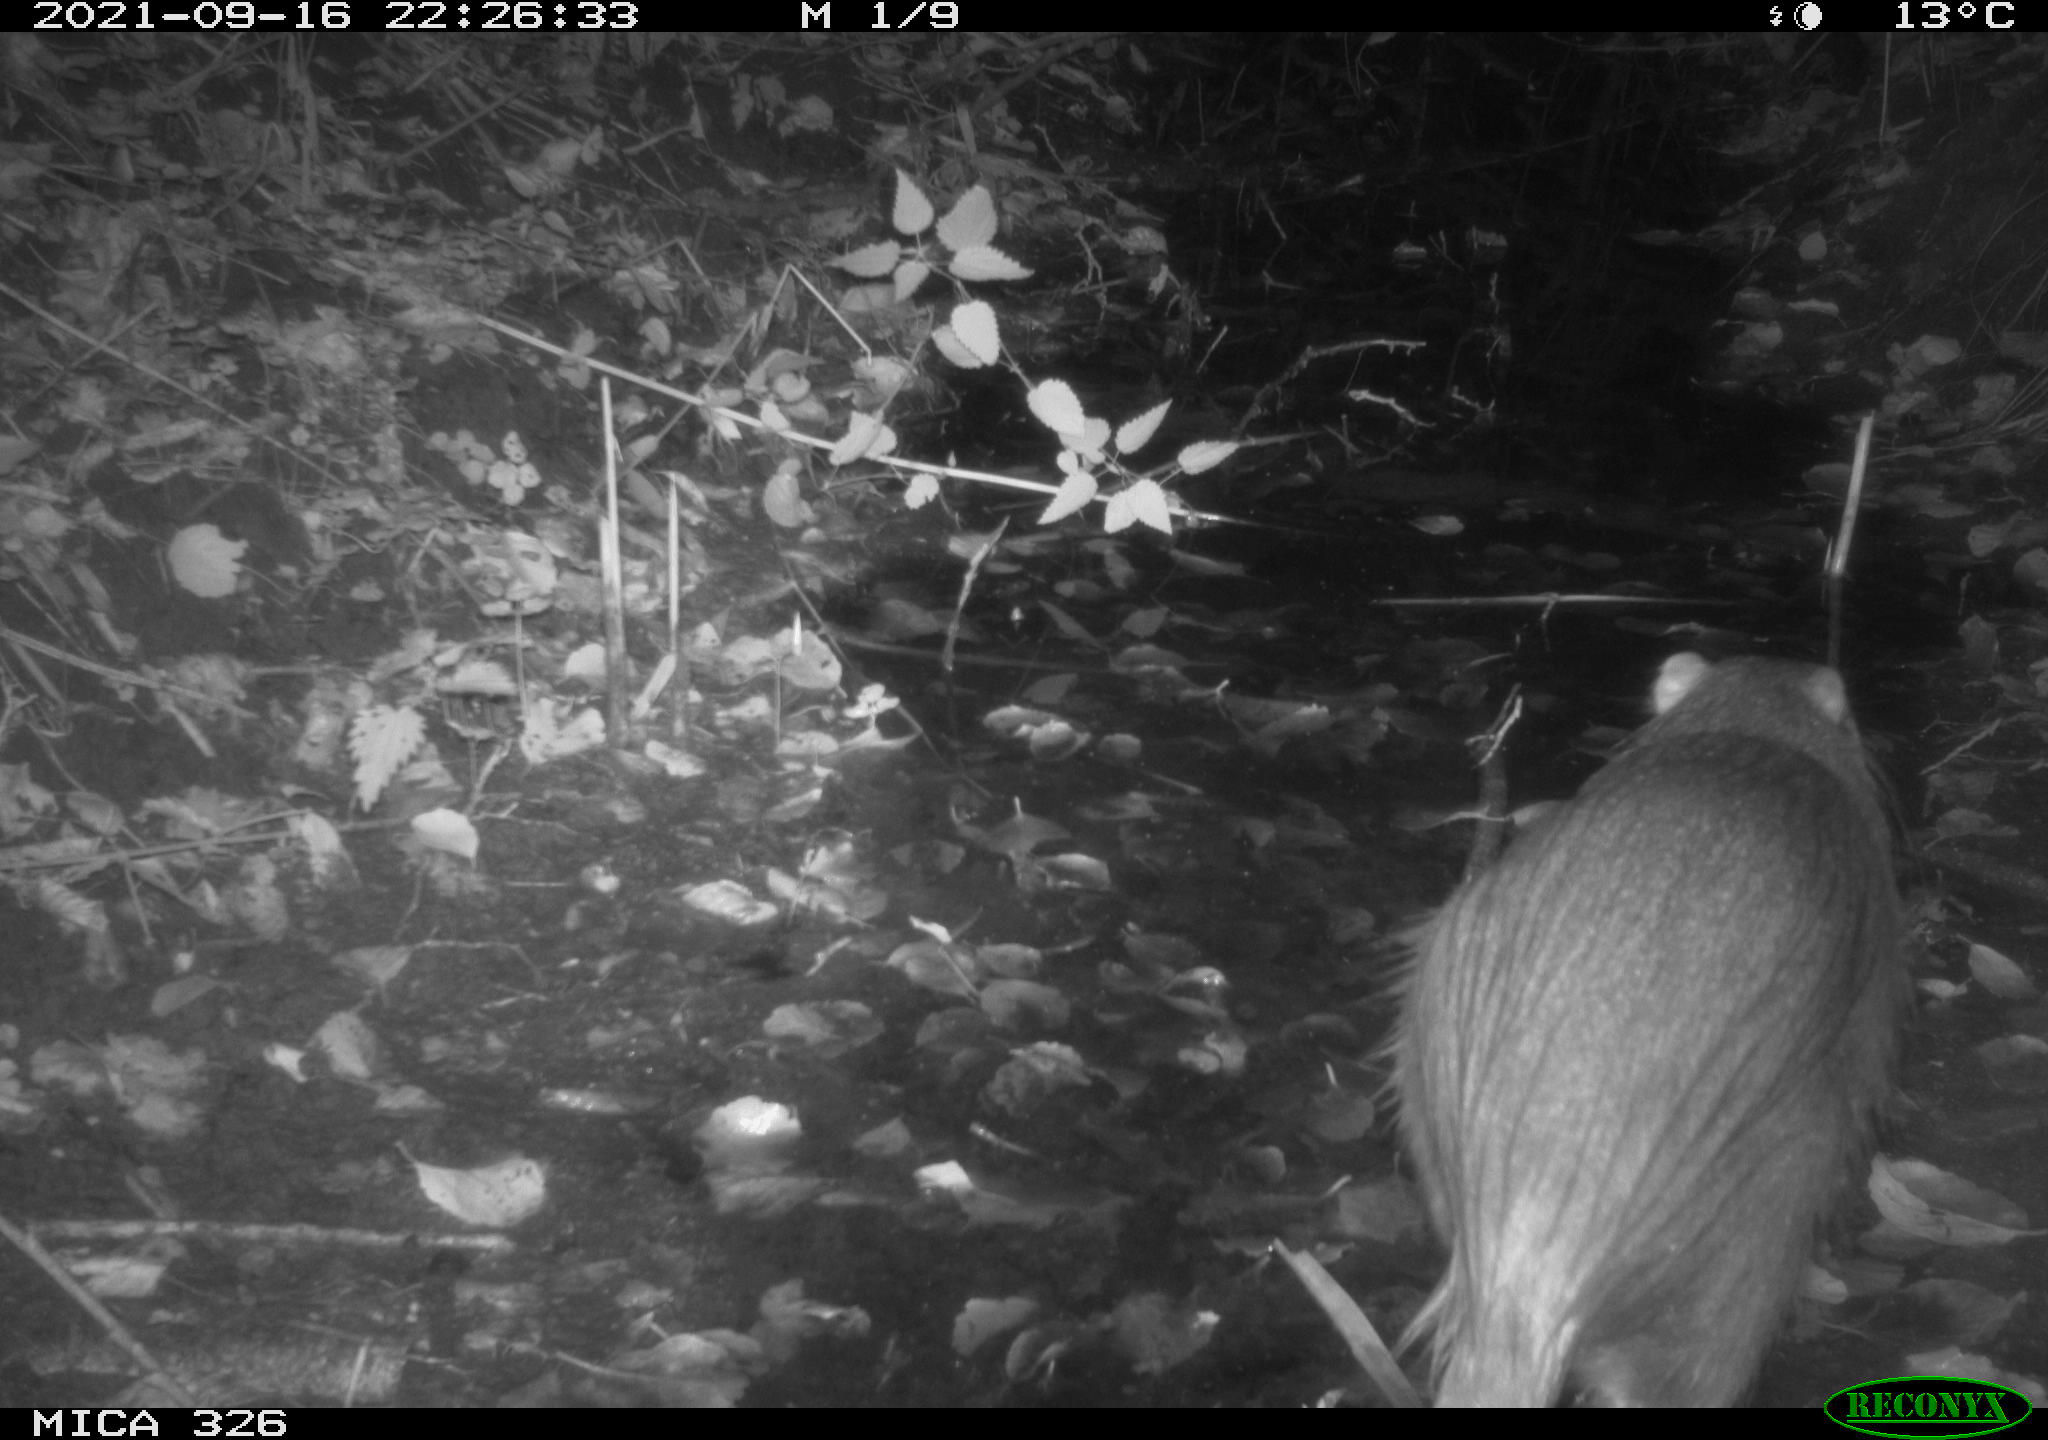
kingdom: Animalia
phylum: Chordata
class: Mammalia
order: Rodentia
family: Myocastoridae
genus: Myocastor
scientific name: Myocastor coypus
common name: Coypu
